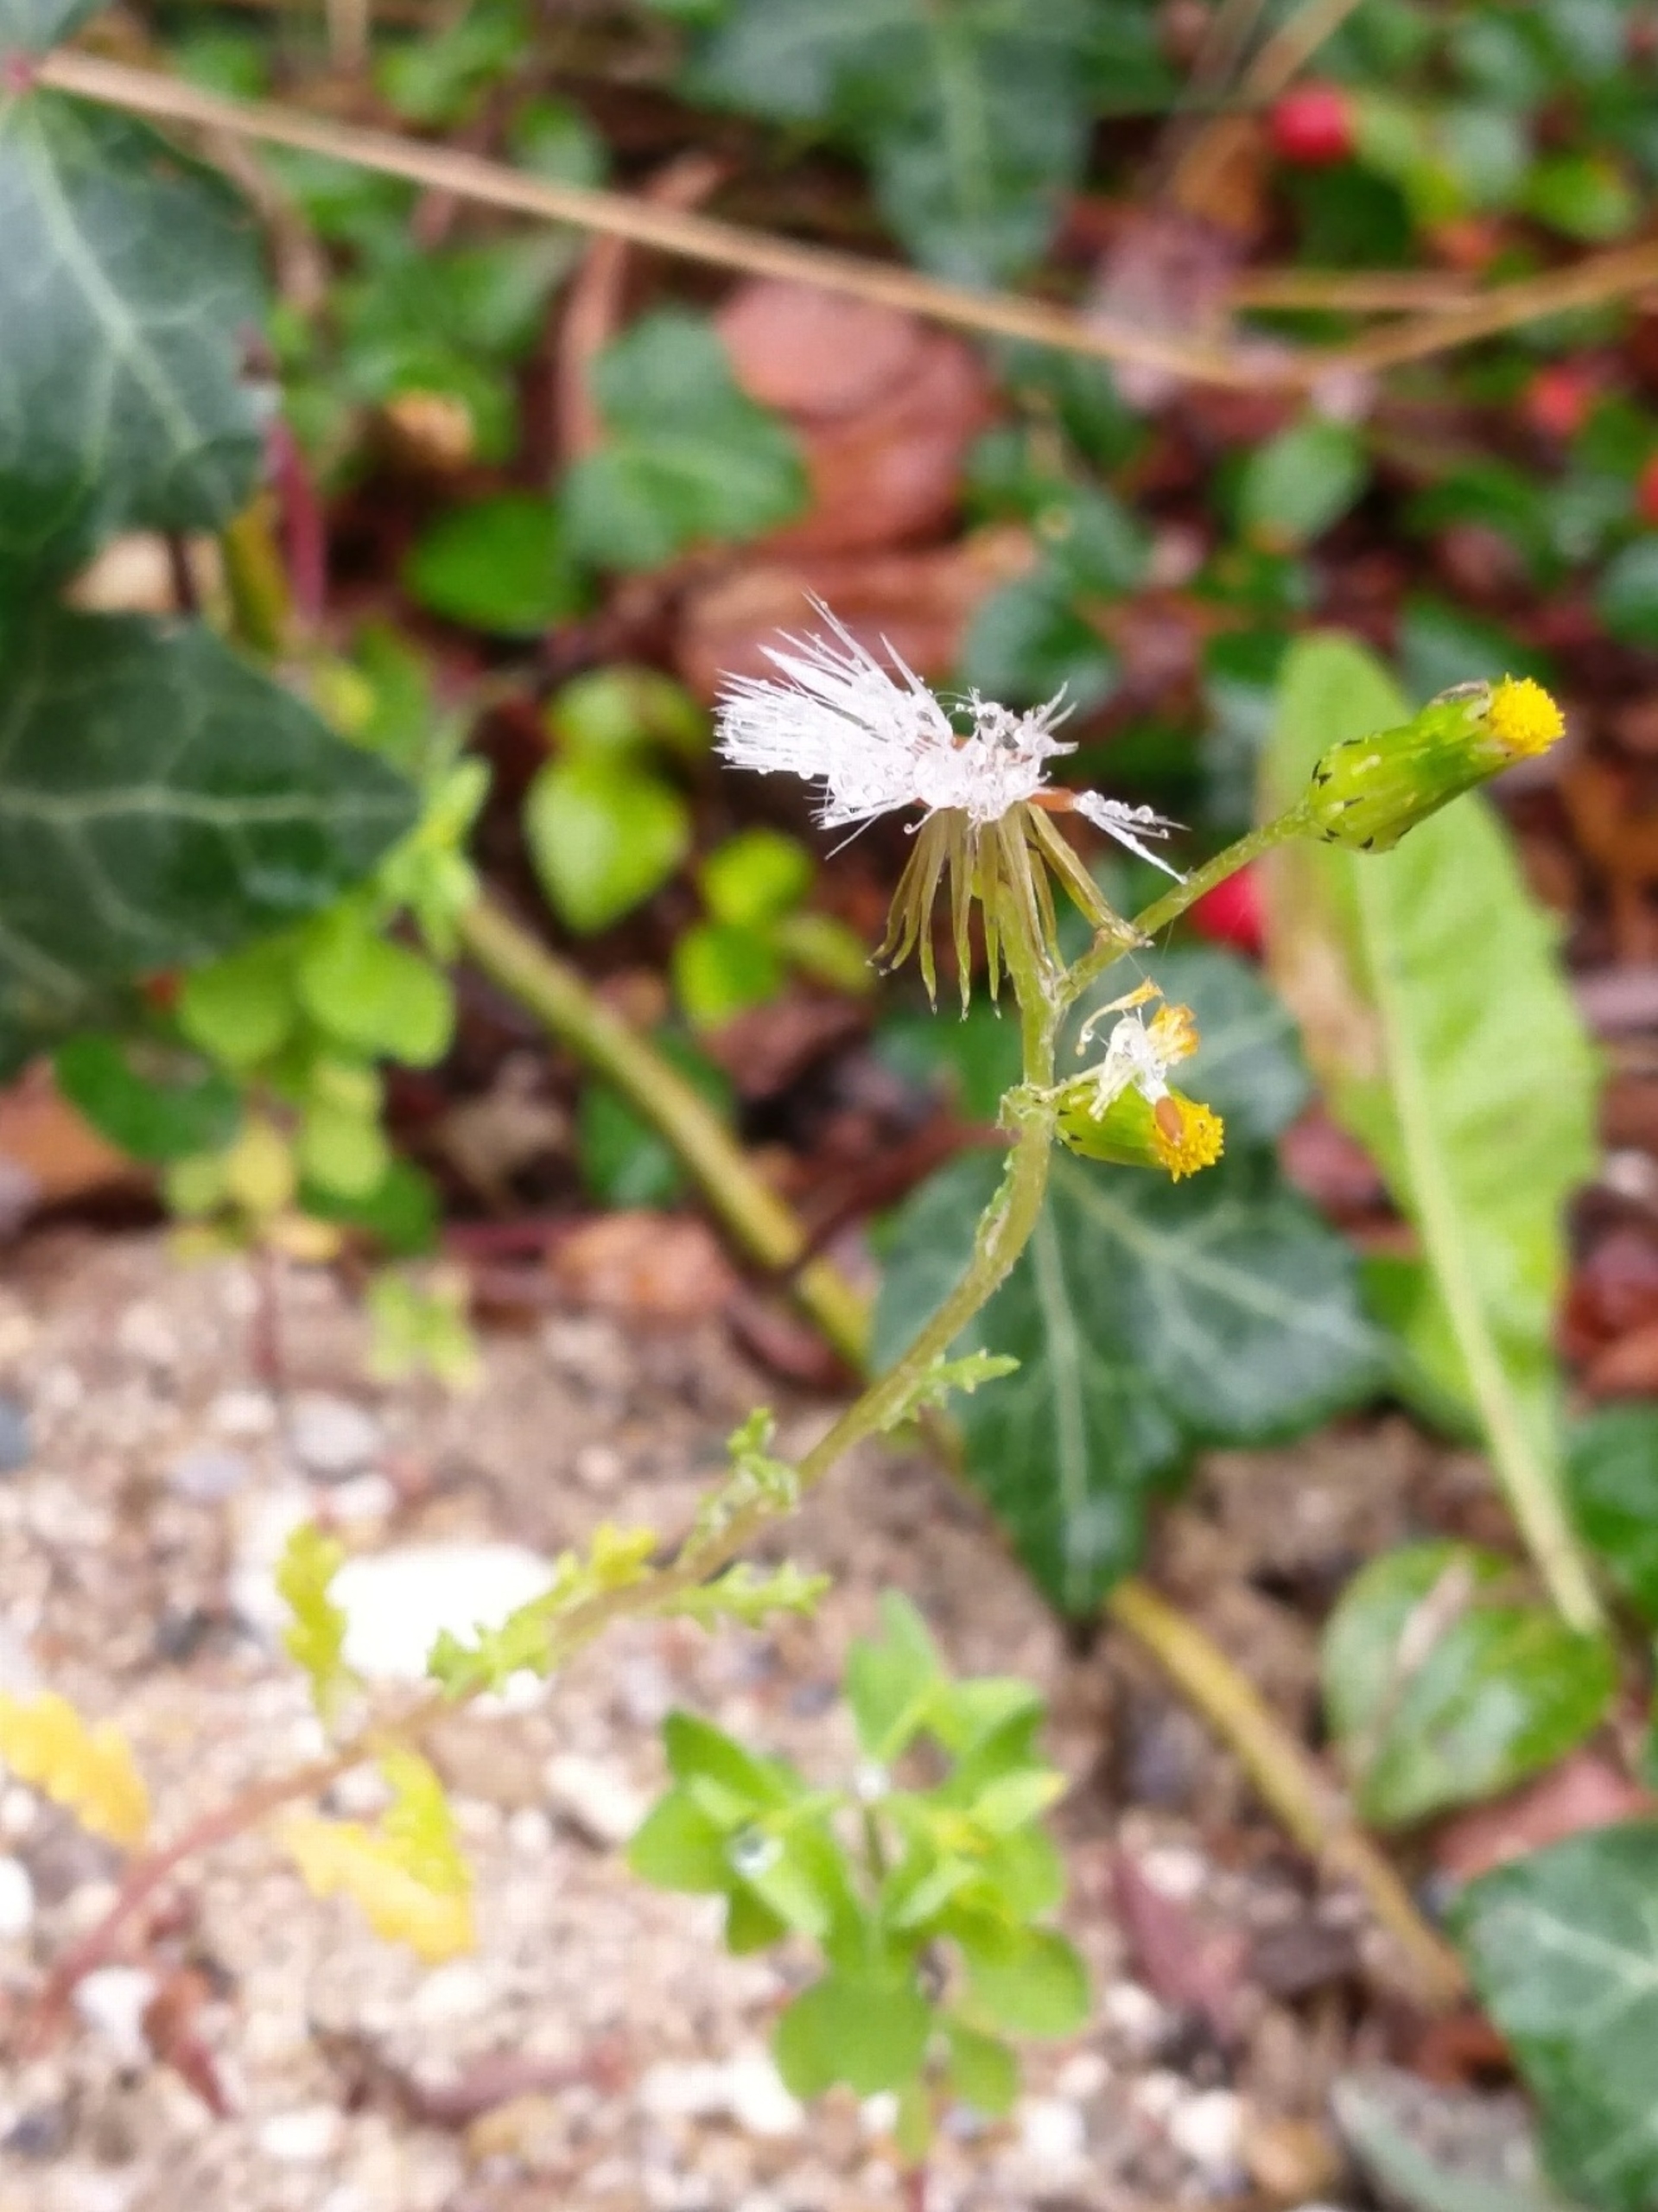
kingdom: Plantae
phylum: Tracheophyta
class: Magnoliopsida
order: Asterales
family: Asteraceae
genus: Senecio
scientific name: Senecio vulgaris
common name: Almindelig brandbæger
